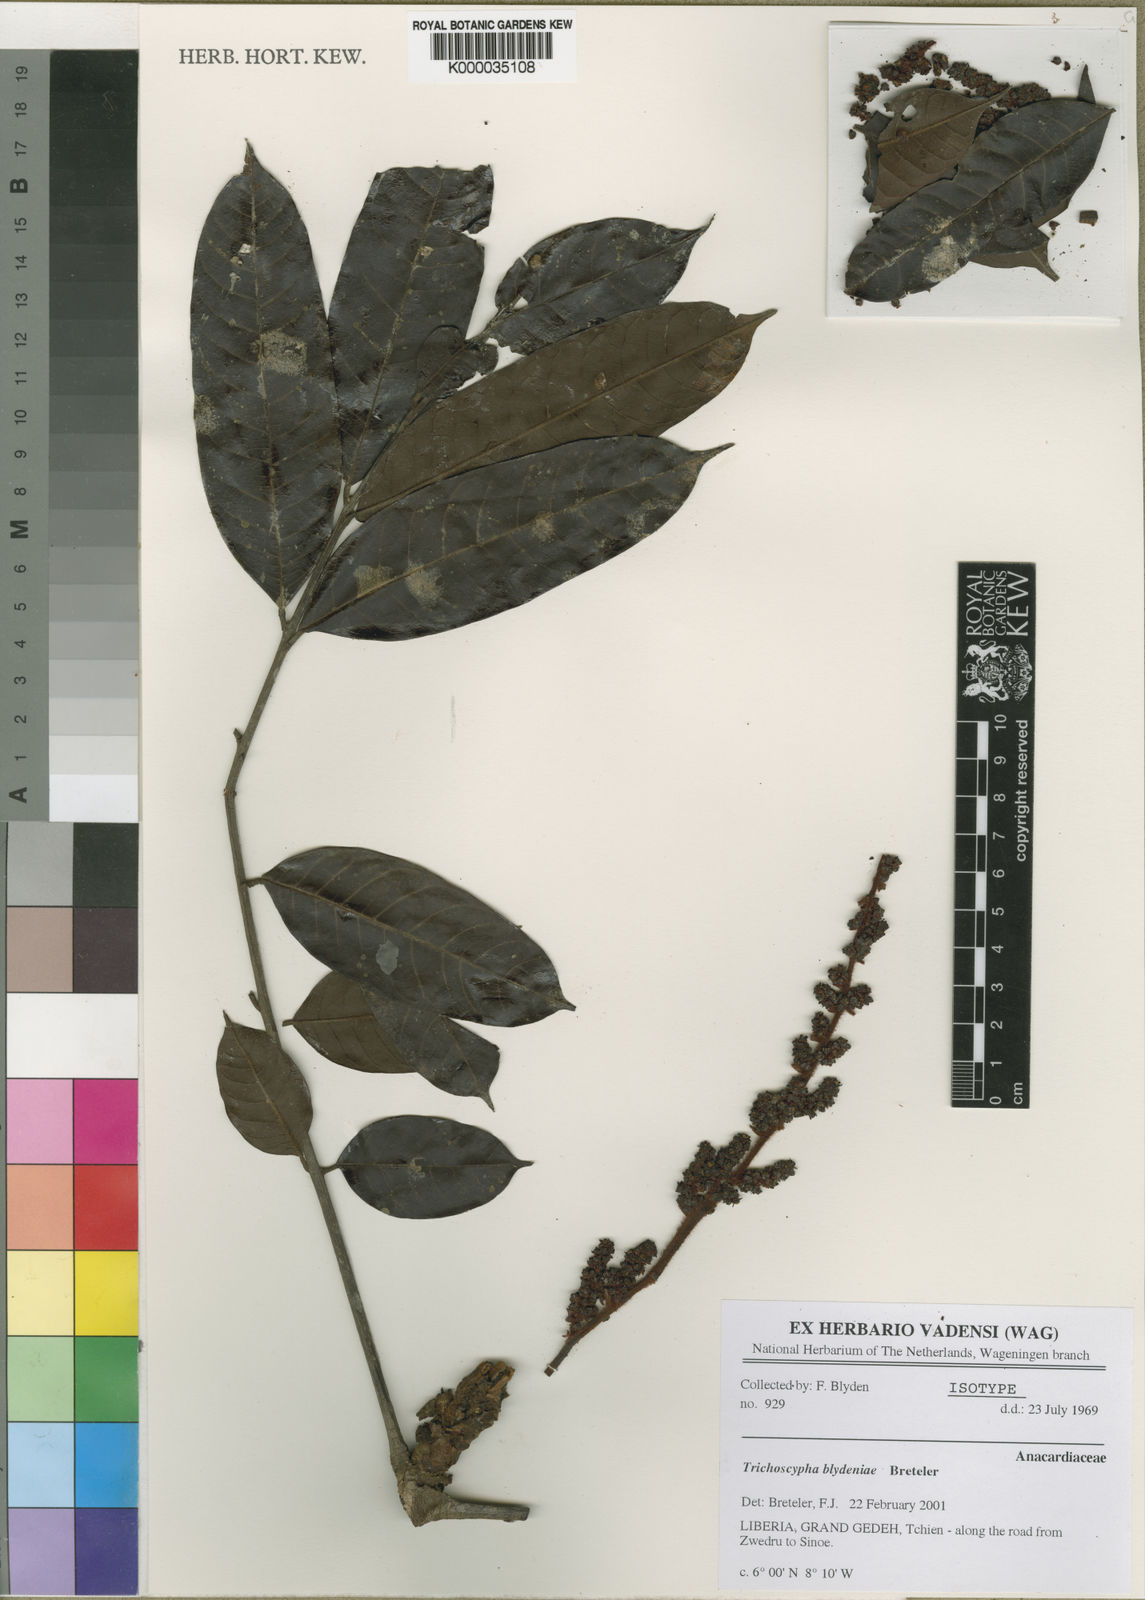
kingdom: Plantae
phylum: Tracheophyta
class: Magnoliopsida
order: Sapindales
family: Anacardiaceae
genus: Trichoscypha
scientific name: Trichoscypha blydeniae
